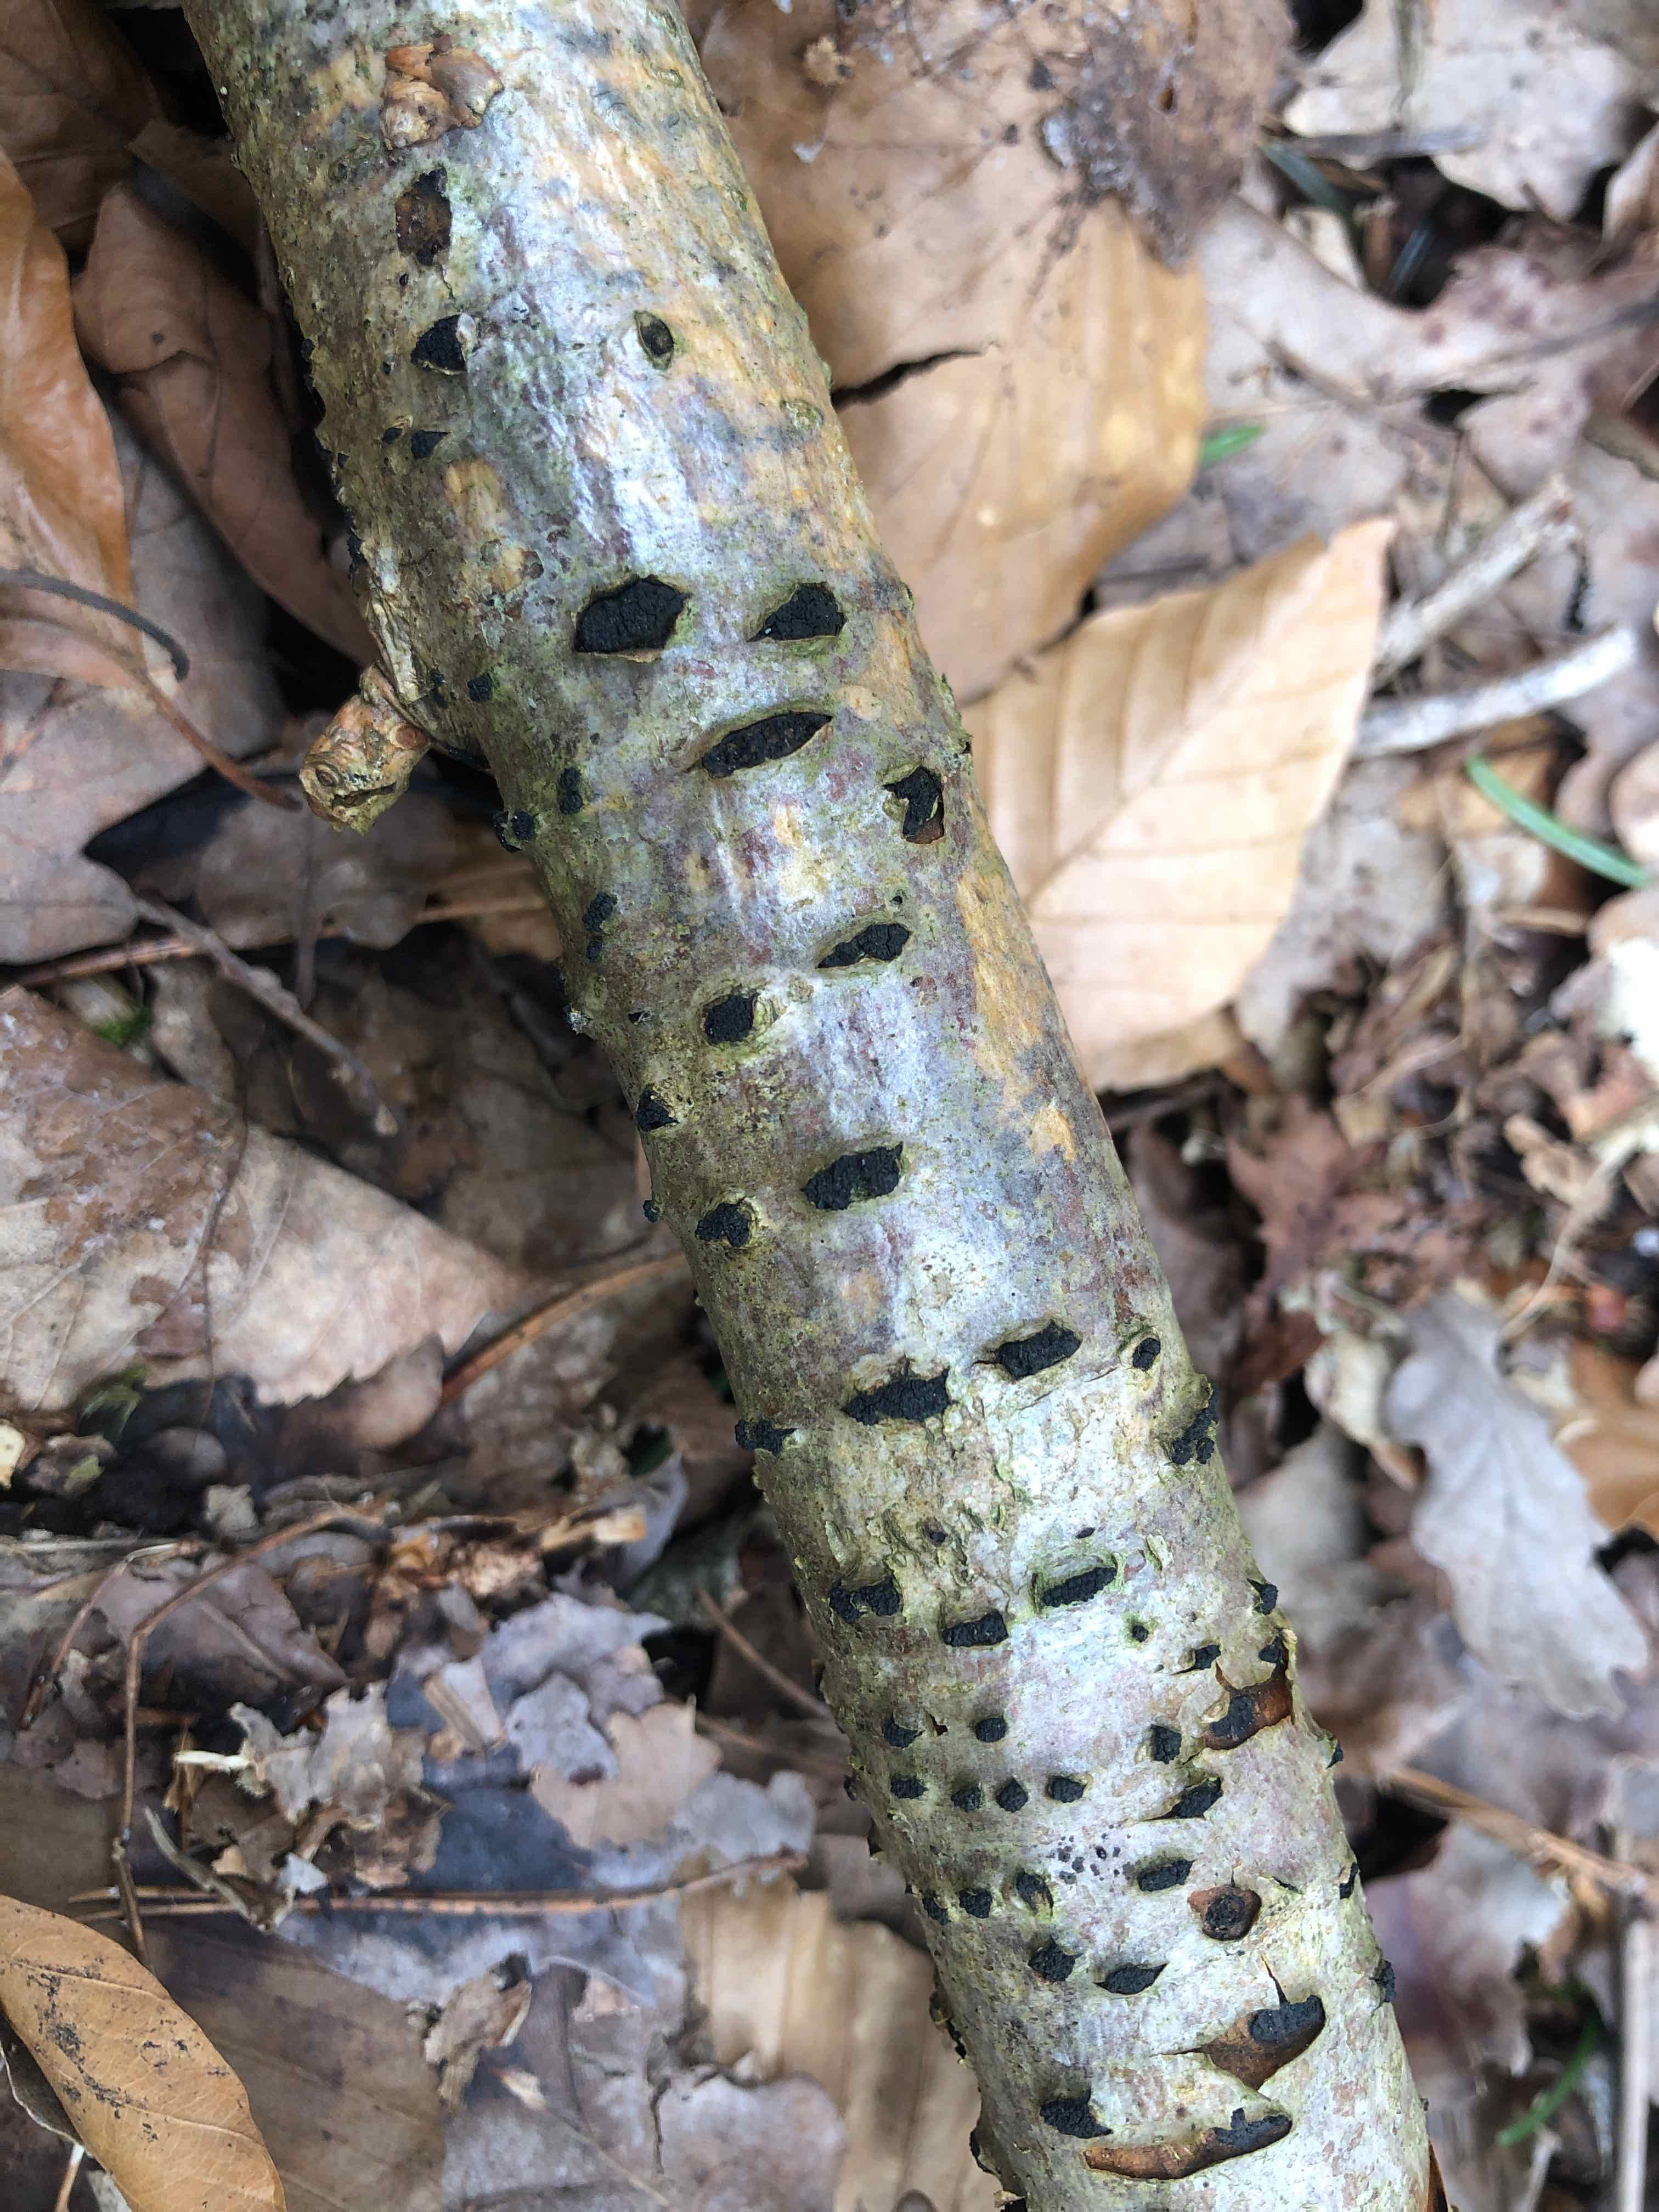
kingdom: Fungi
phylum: Ascomycota
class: Sordariomycetes
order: Xylariales
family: Diatrypaceae
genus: Eutypella
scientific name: Eutypella sorbi
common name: rønne-kulskorpe
